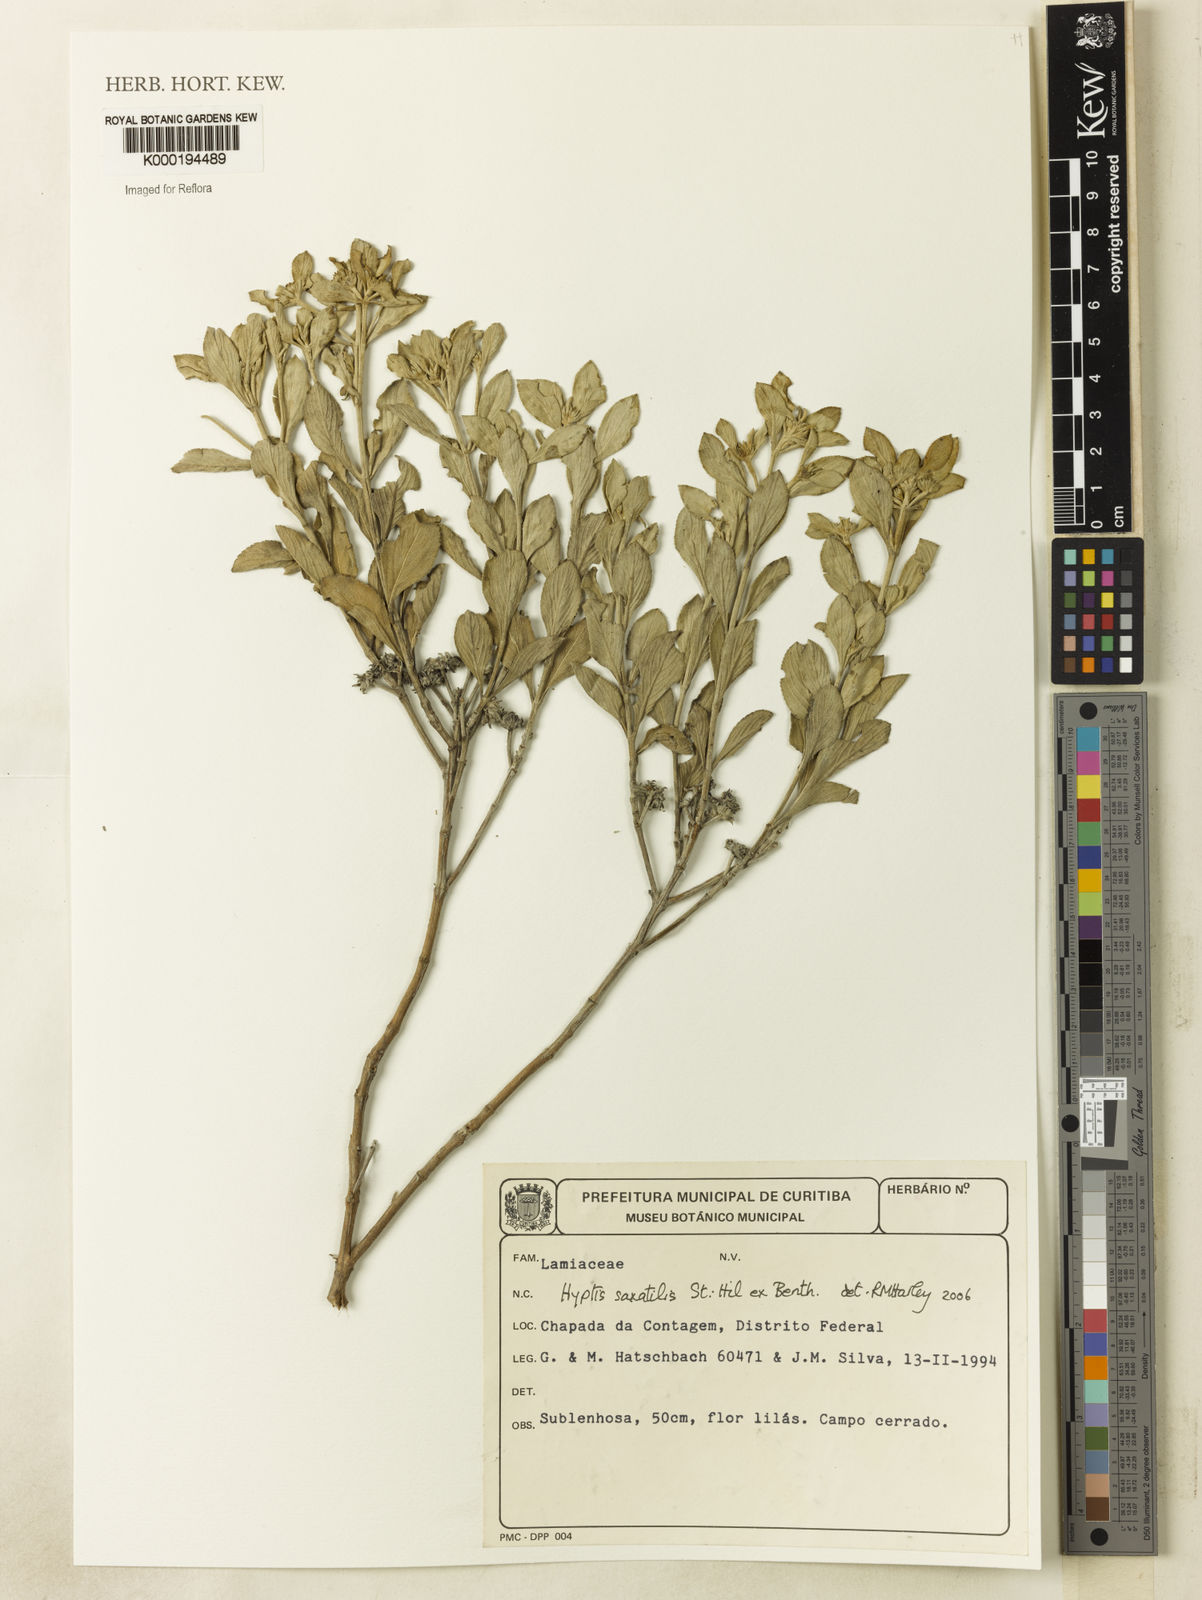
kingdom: Plantae
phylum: Tracheophyta
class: Magnoliopsida
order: Lamiales
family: Lamiaceae
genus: Hyptis
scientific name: Hyptis saxatilis
